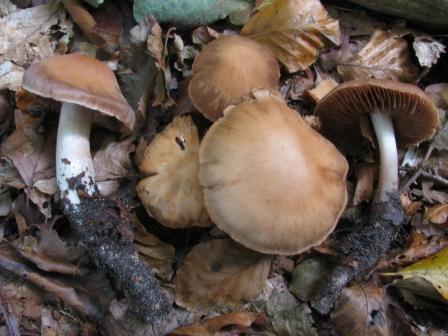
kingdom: Fungi
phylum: Basidiomycota
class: Agaricomycetes
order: Agaricales
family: Cortinariaceae
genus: Cortinarius
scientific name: Cortinarius spisnii
